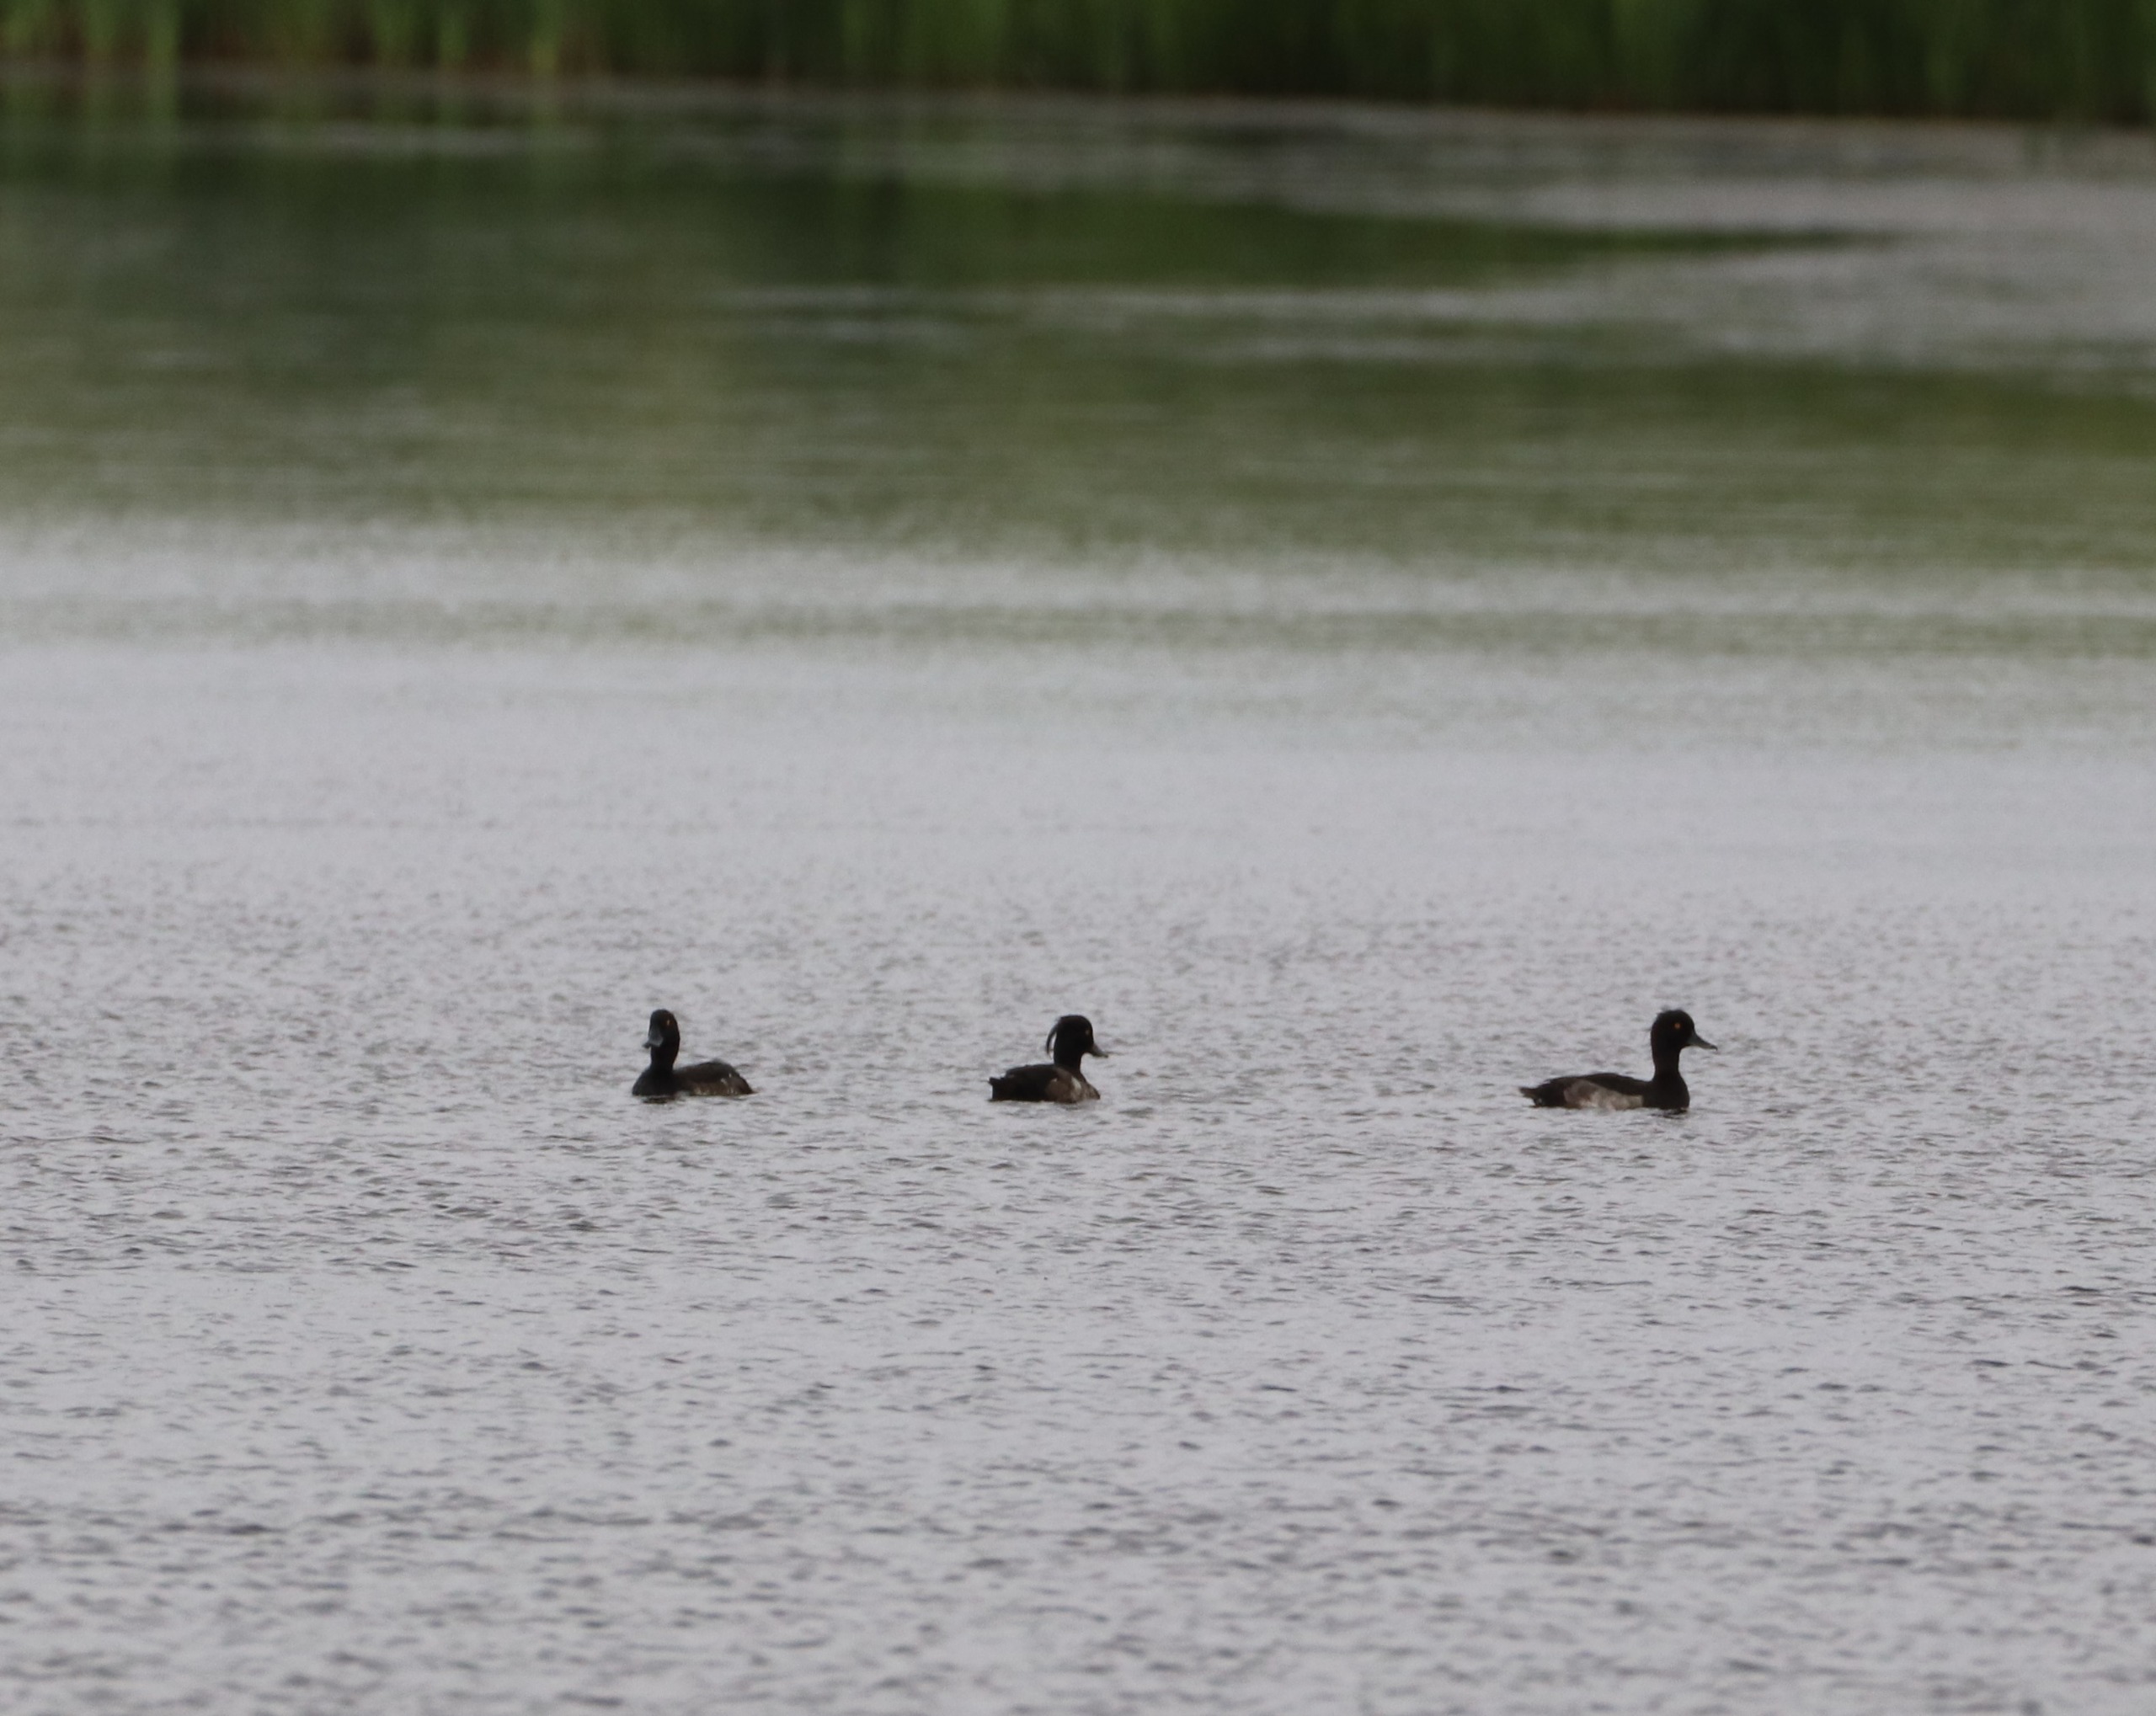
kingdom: Animalia
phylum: Chordata
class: Aves
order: Anseriformes
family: Anatidae
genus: Aythya
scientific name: Aythya fuligula
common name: Troldand
